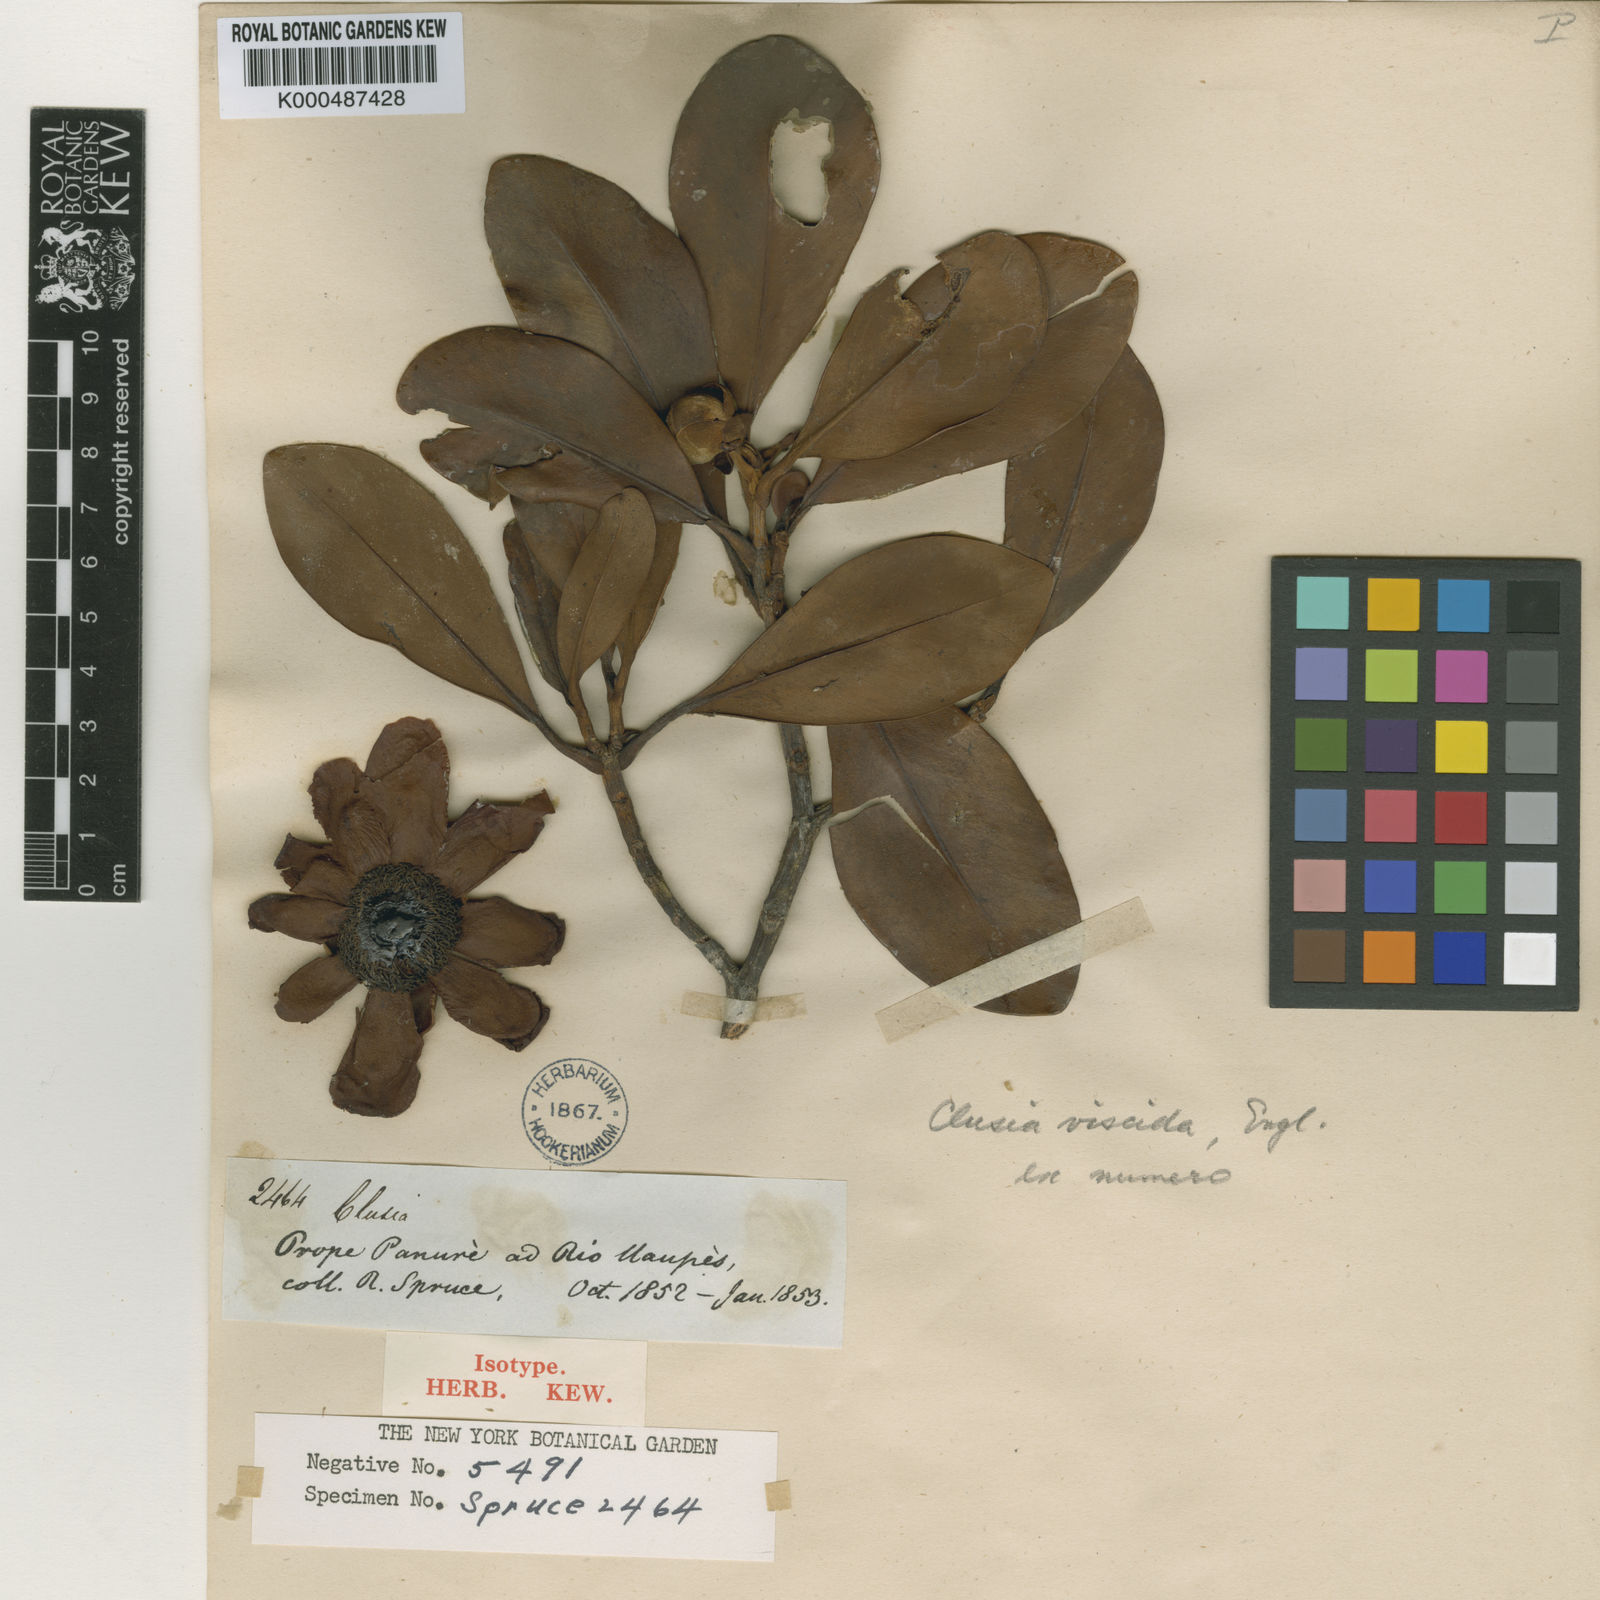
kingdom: Plantae
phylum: Tracheophyta
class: Magnoliopsida
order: Malpighiales
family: Clusiaceae
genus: Clusia
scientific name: Clusia viscida
